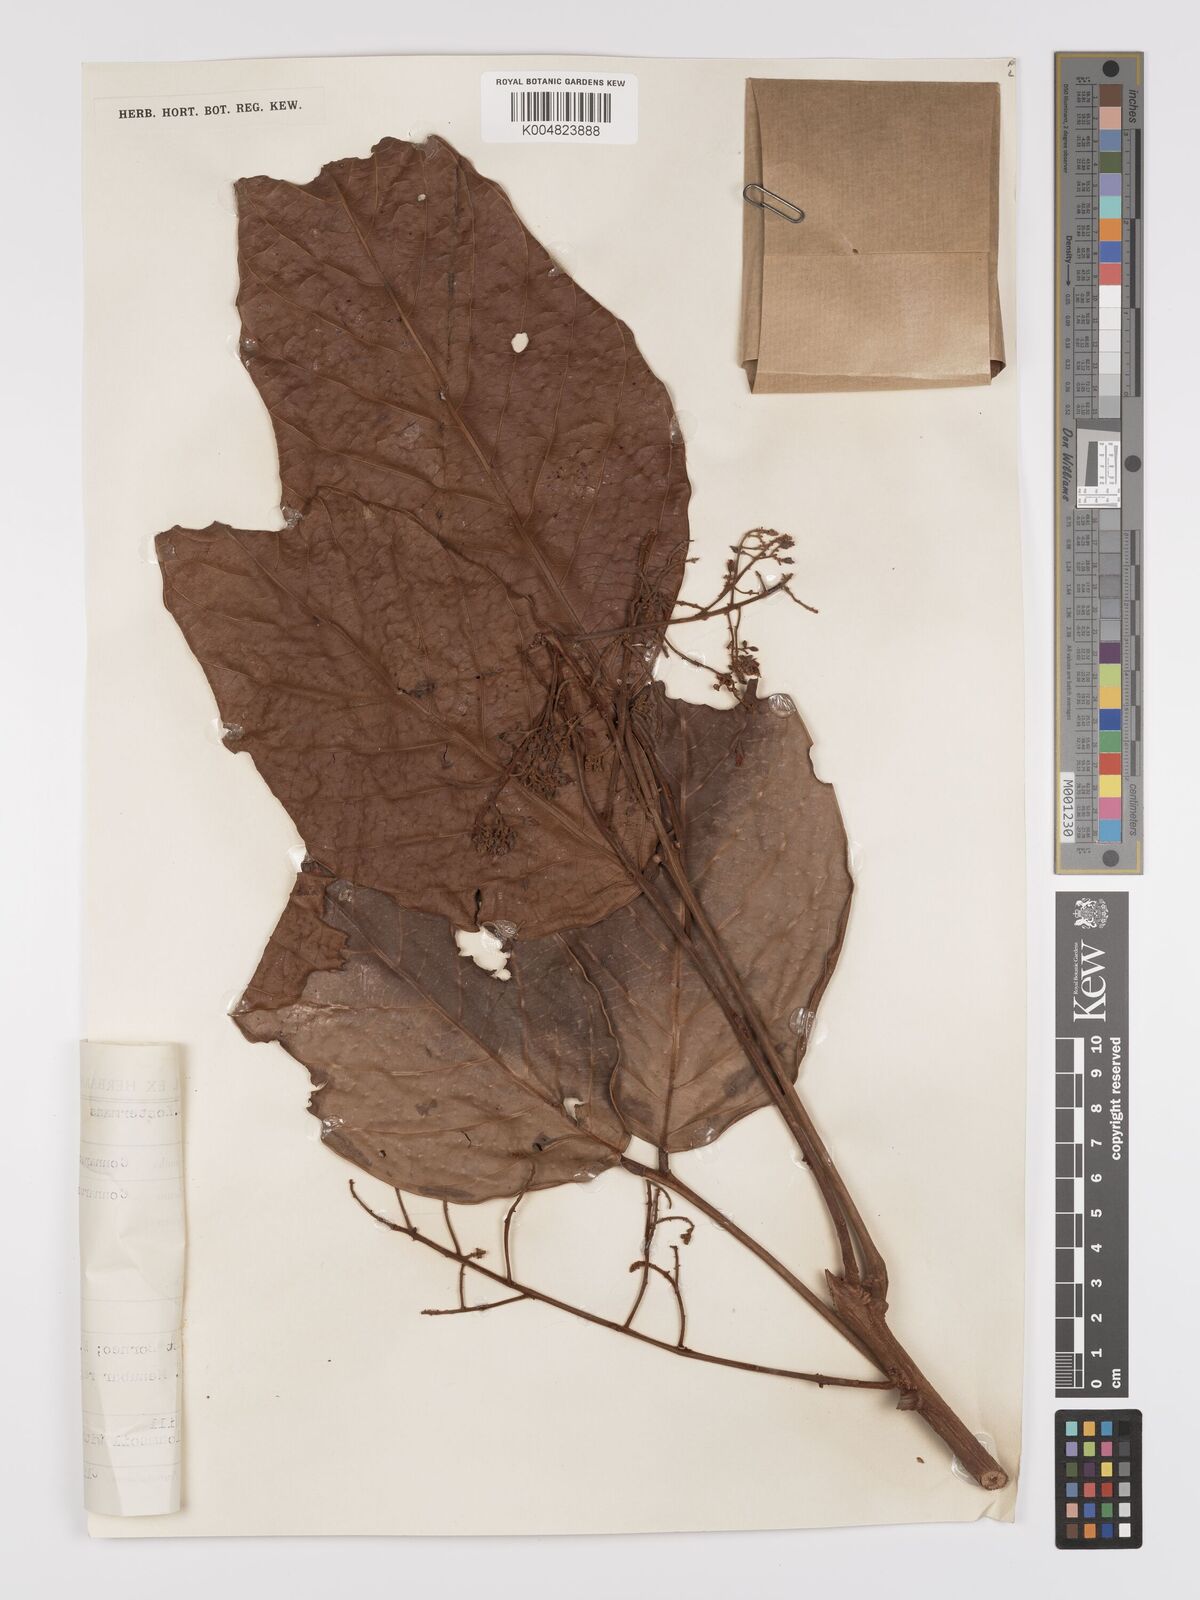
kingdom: Plantae
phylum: Tracheophyta
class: Magnoliopsida
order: Oxalidales
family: Connaraceae
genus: Connarus
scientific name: Connarus grandis
